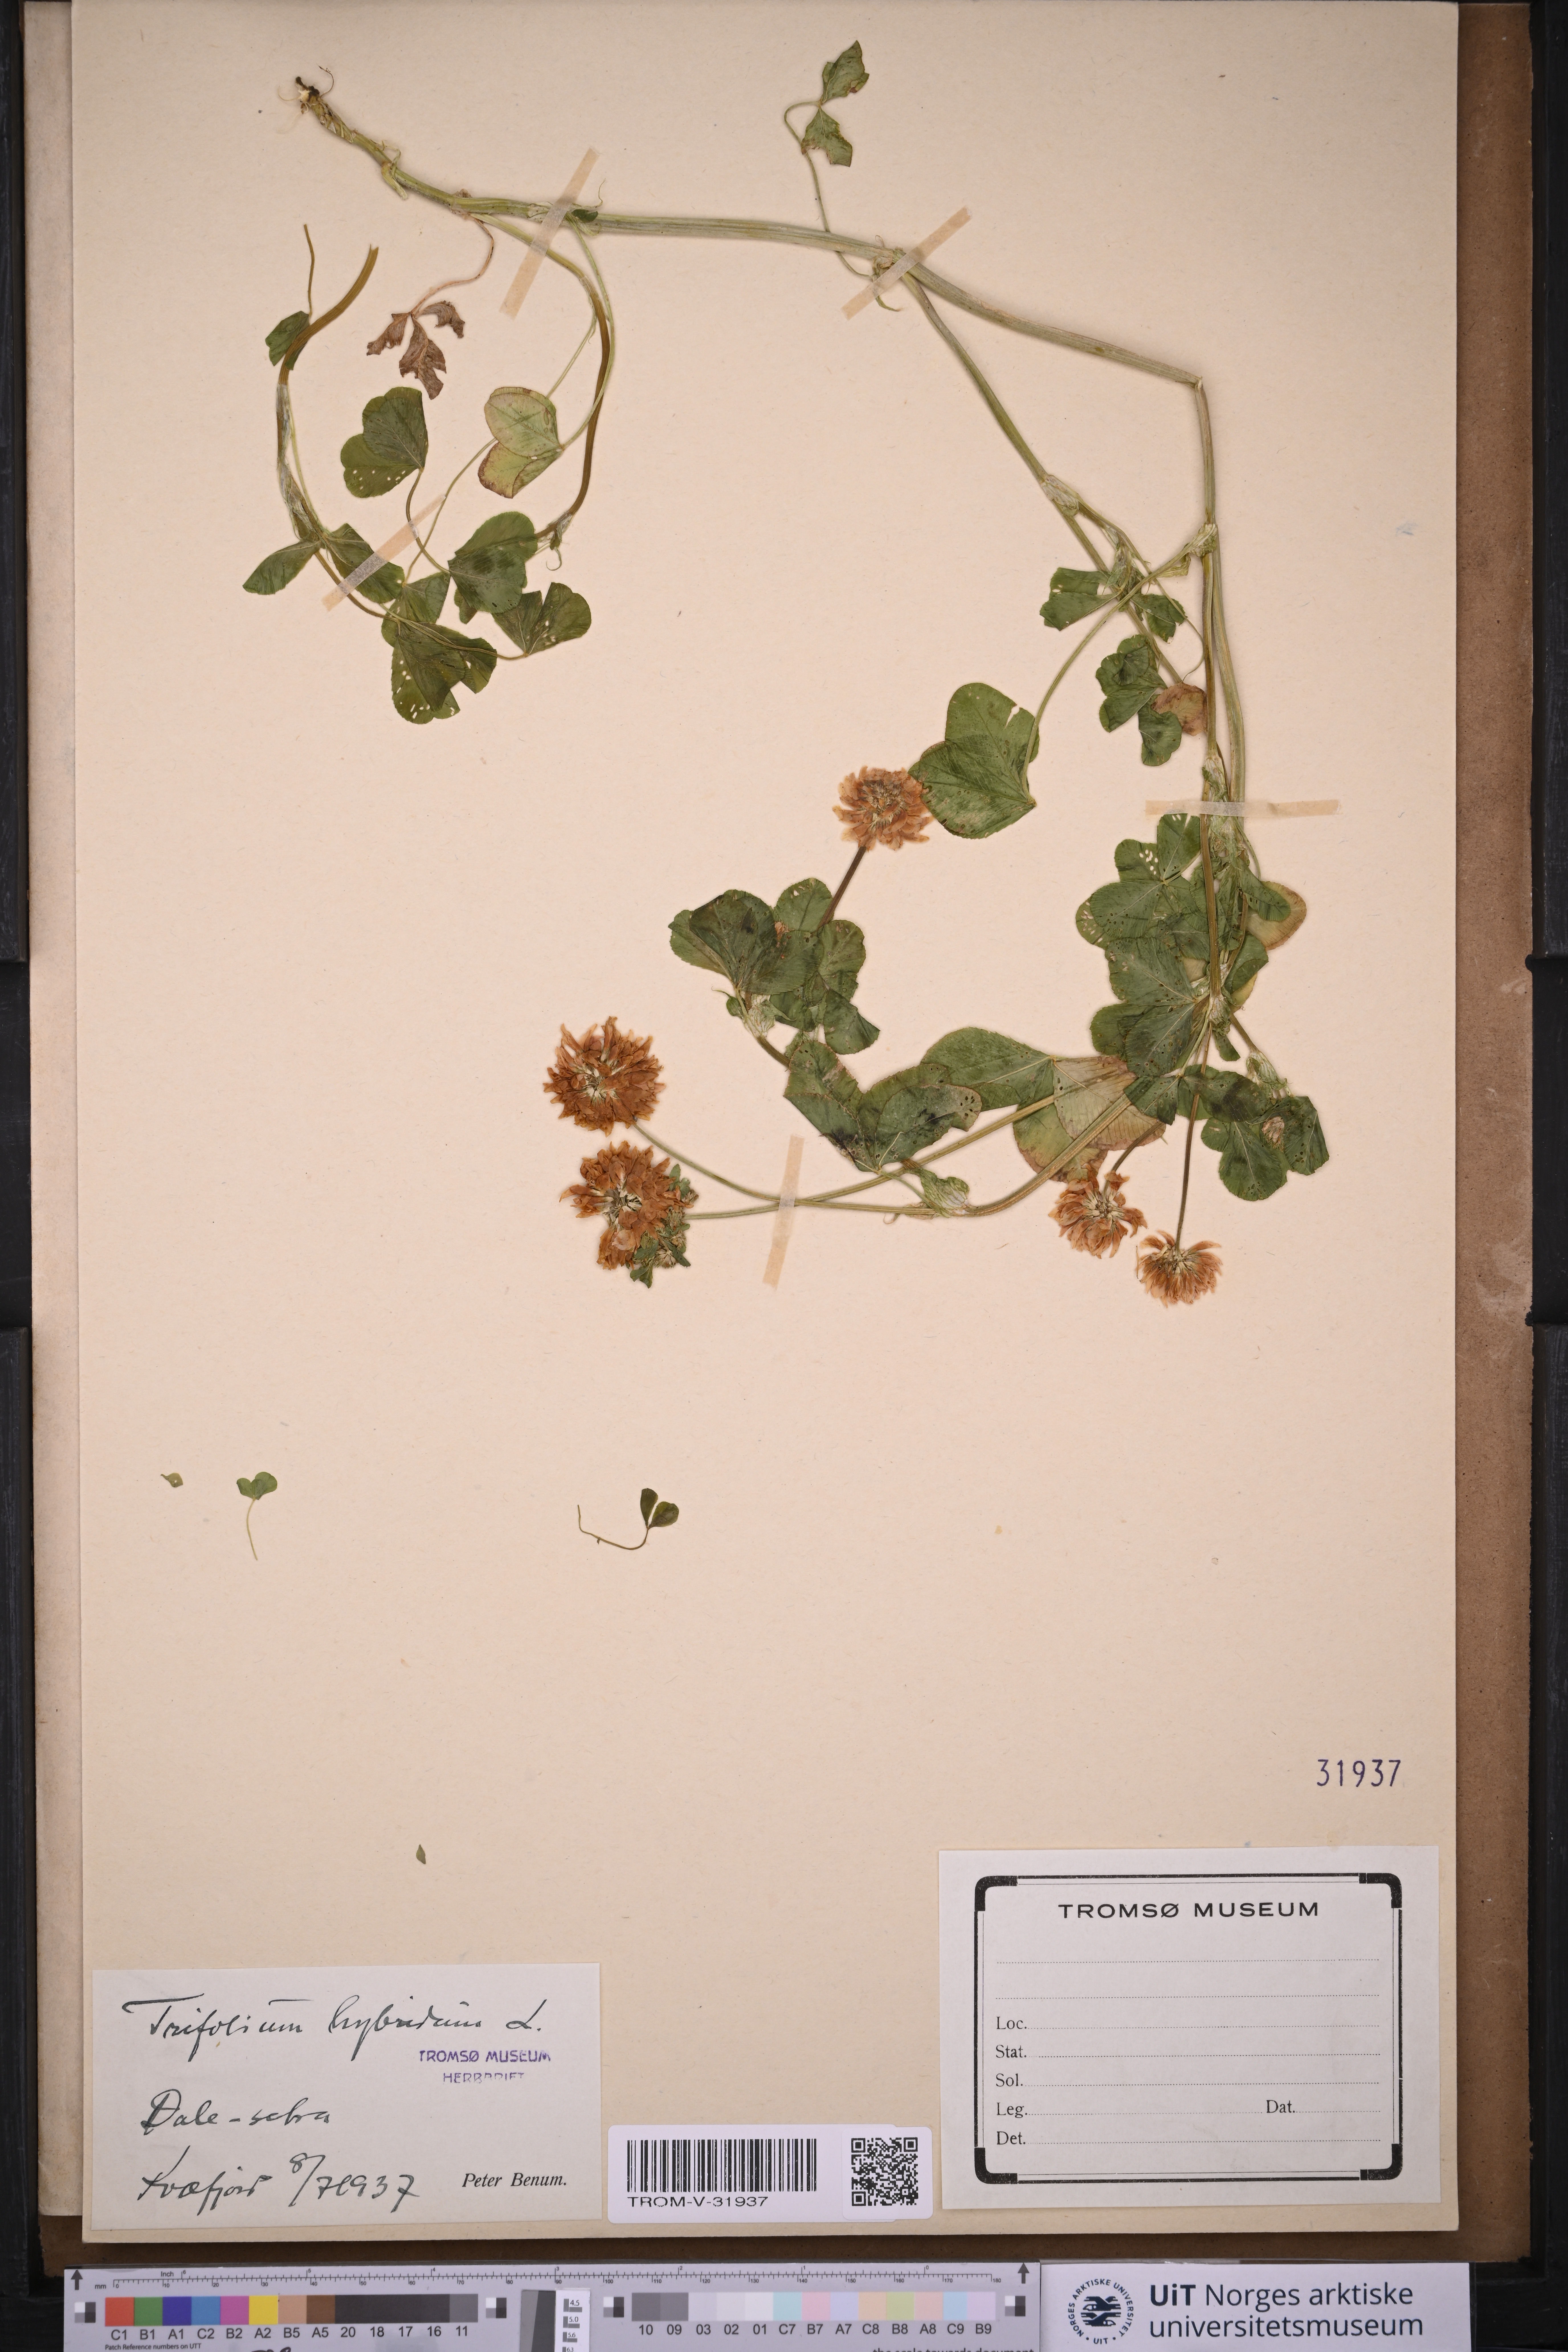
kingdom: Plantae
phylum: Tracheophyta
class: Magnoliopsida
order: Fabales
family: Fabaceae
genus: Trifolium
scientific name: Trifolium hybridum
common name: Alsike clover
